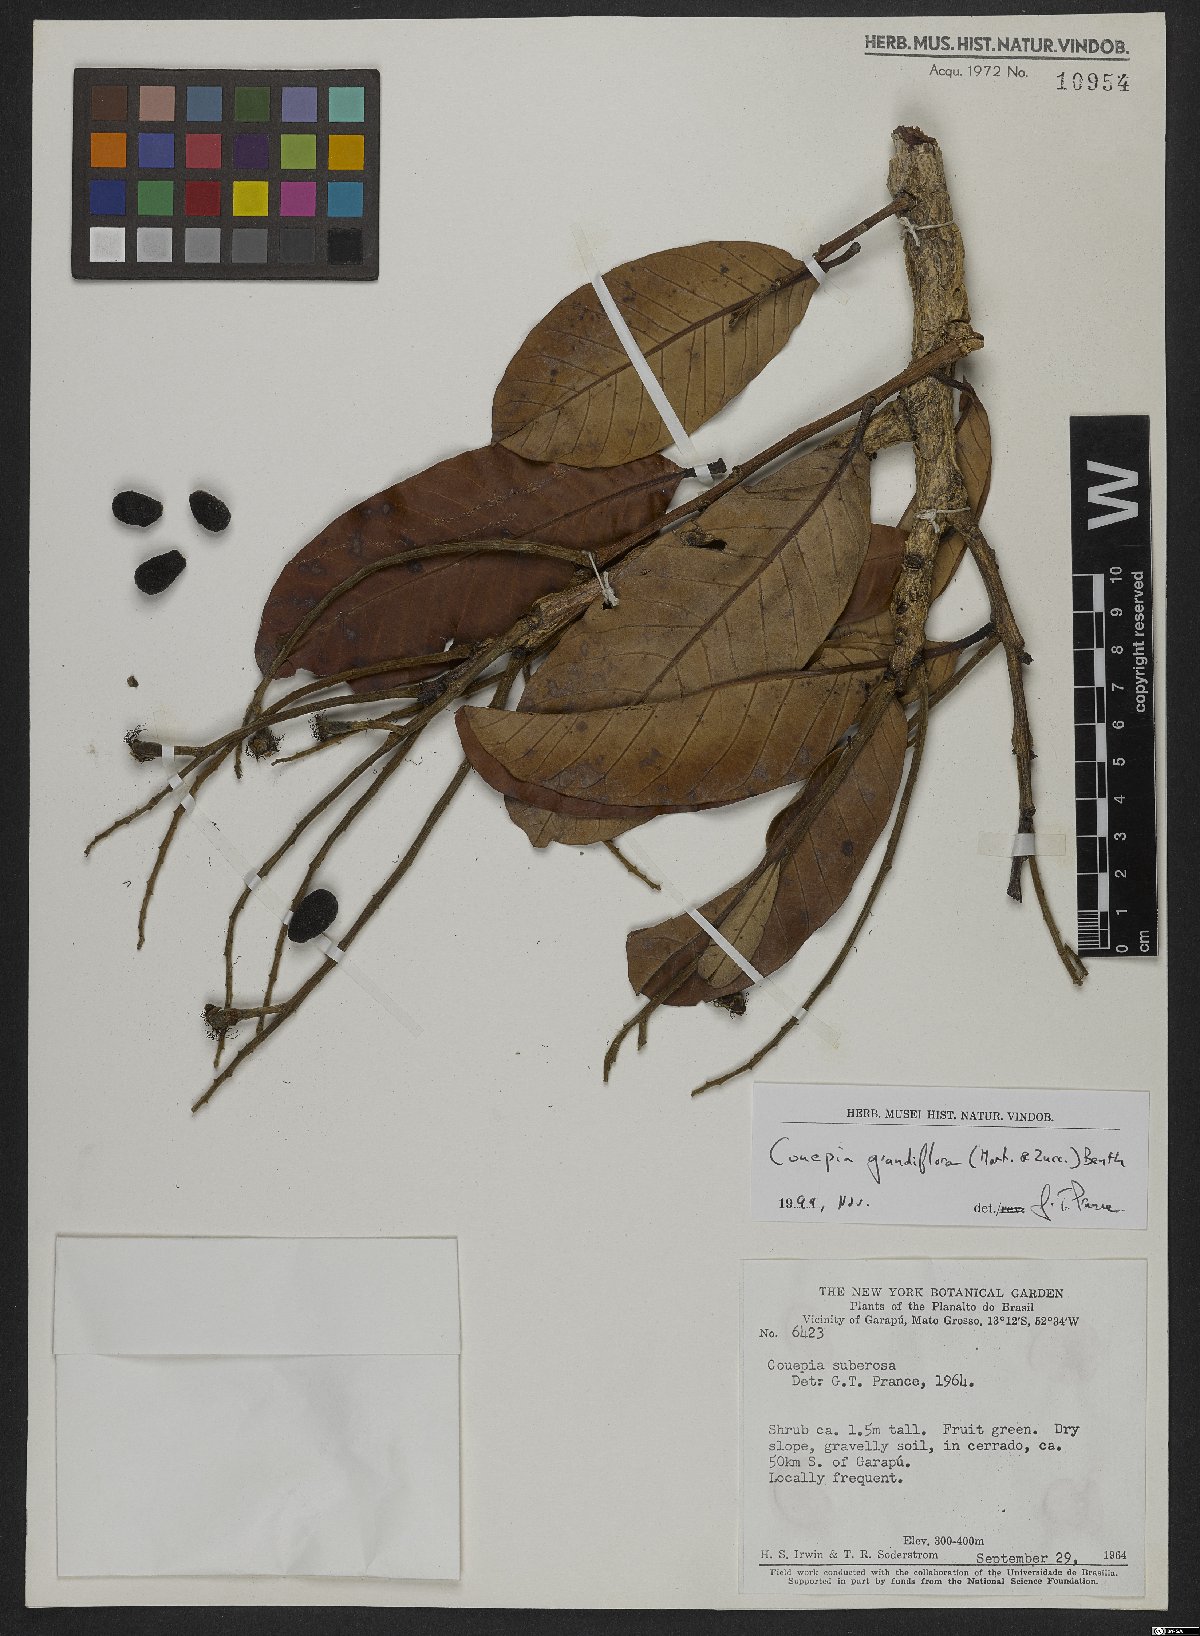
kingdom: Plantae
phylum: Tracheophyta
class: Magnoliopsida
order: Malpighiales
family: Chrysobalanaceae
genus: Couepia
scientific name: Couepia grandiflora
